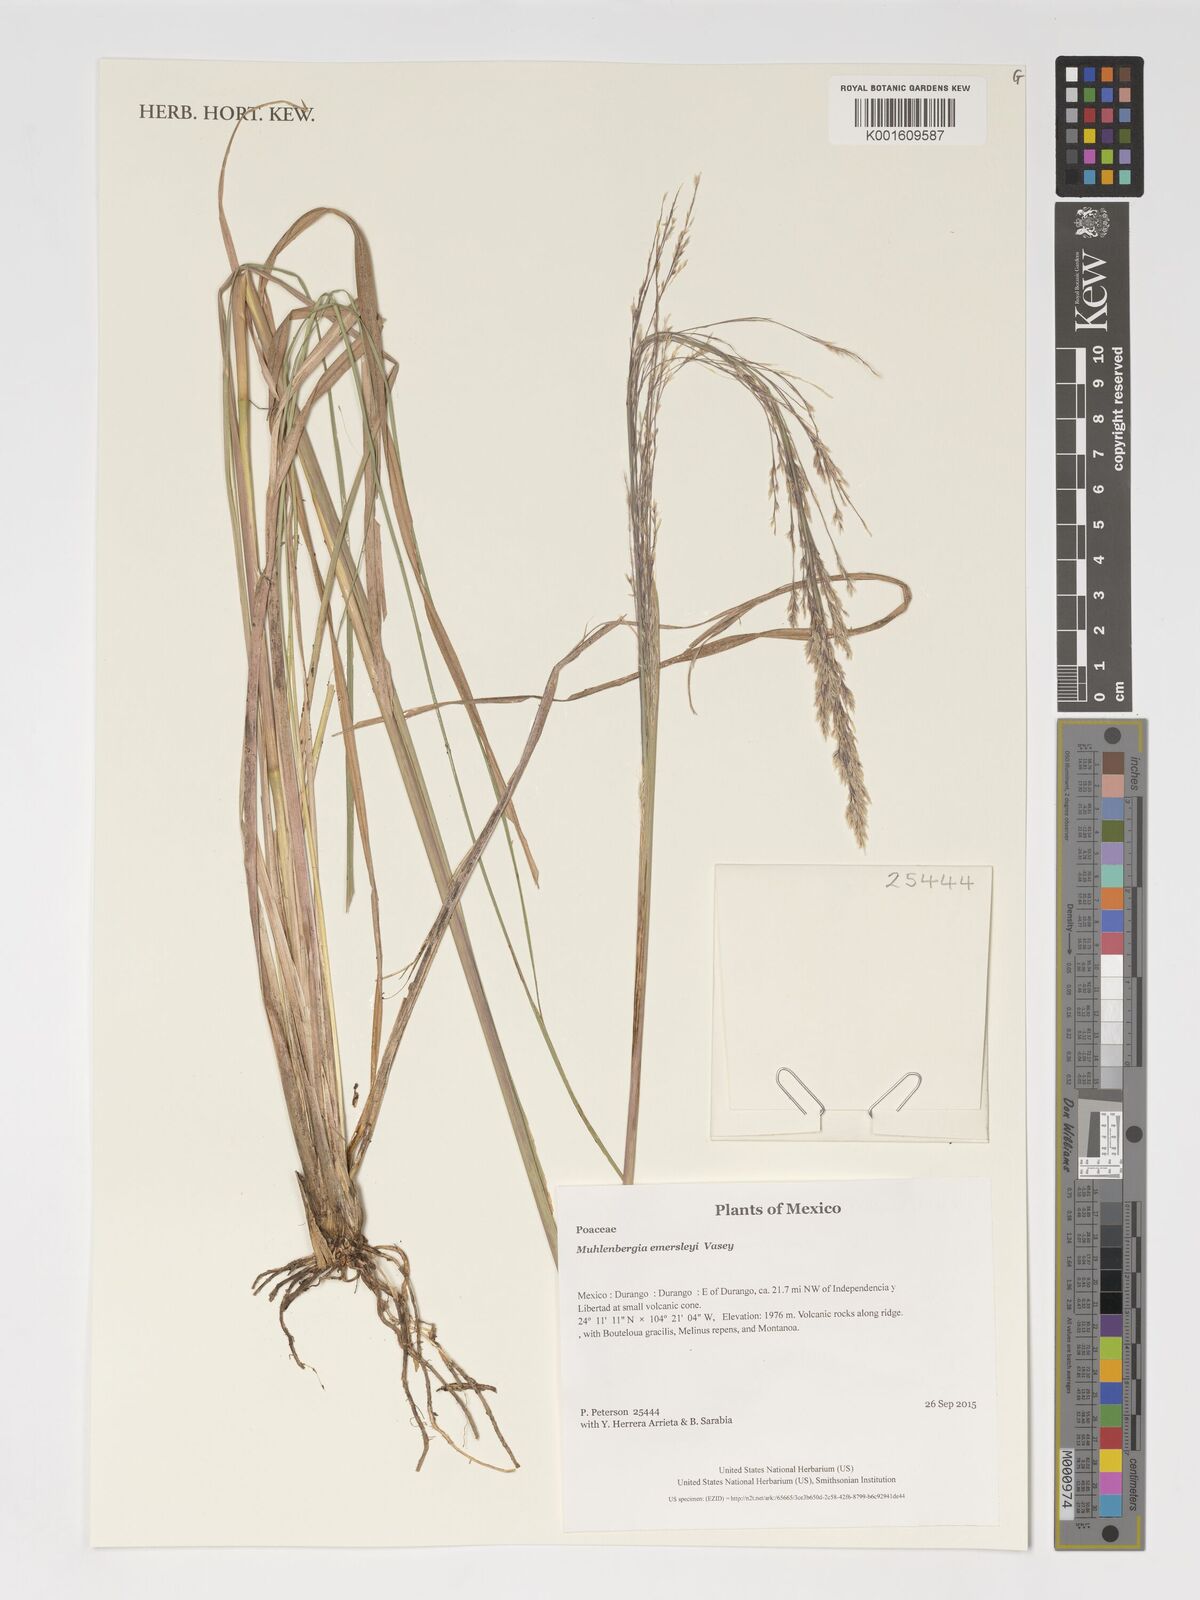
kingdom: Plantae
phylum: Tracheophyta
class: Liliopsida
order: Poales
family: Poaceae
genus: Muhlenbergia
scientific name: Muhlenbergia emersleyi
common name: Bull grass
